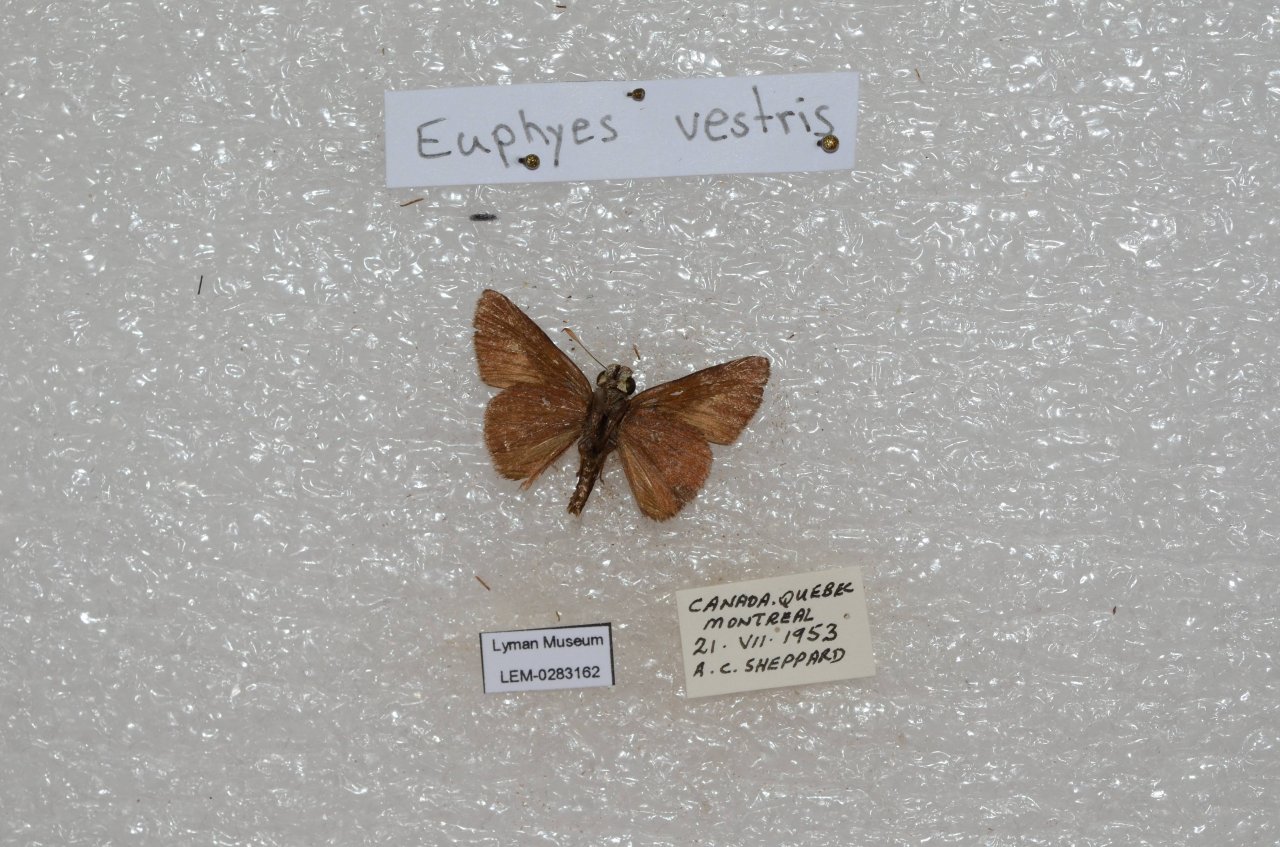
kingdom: Animalia
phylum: Arthropoda
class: Insecta
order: Lepidoptera
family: Hesperiidae
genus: Euphyes
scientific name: Euphyes vestris
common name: Dun Skipper
